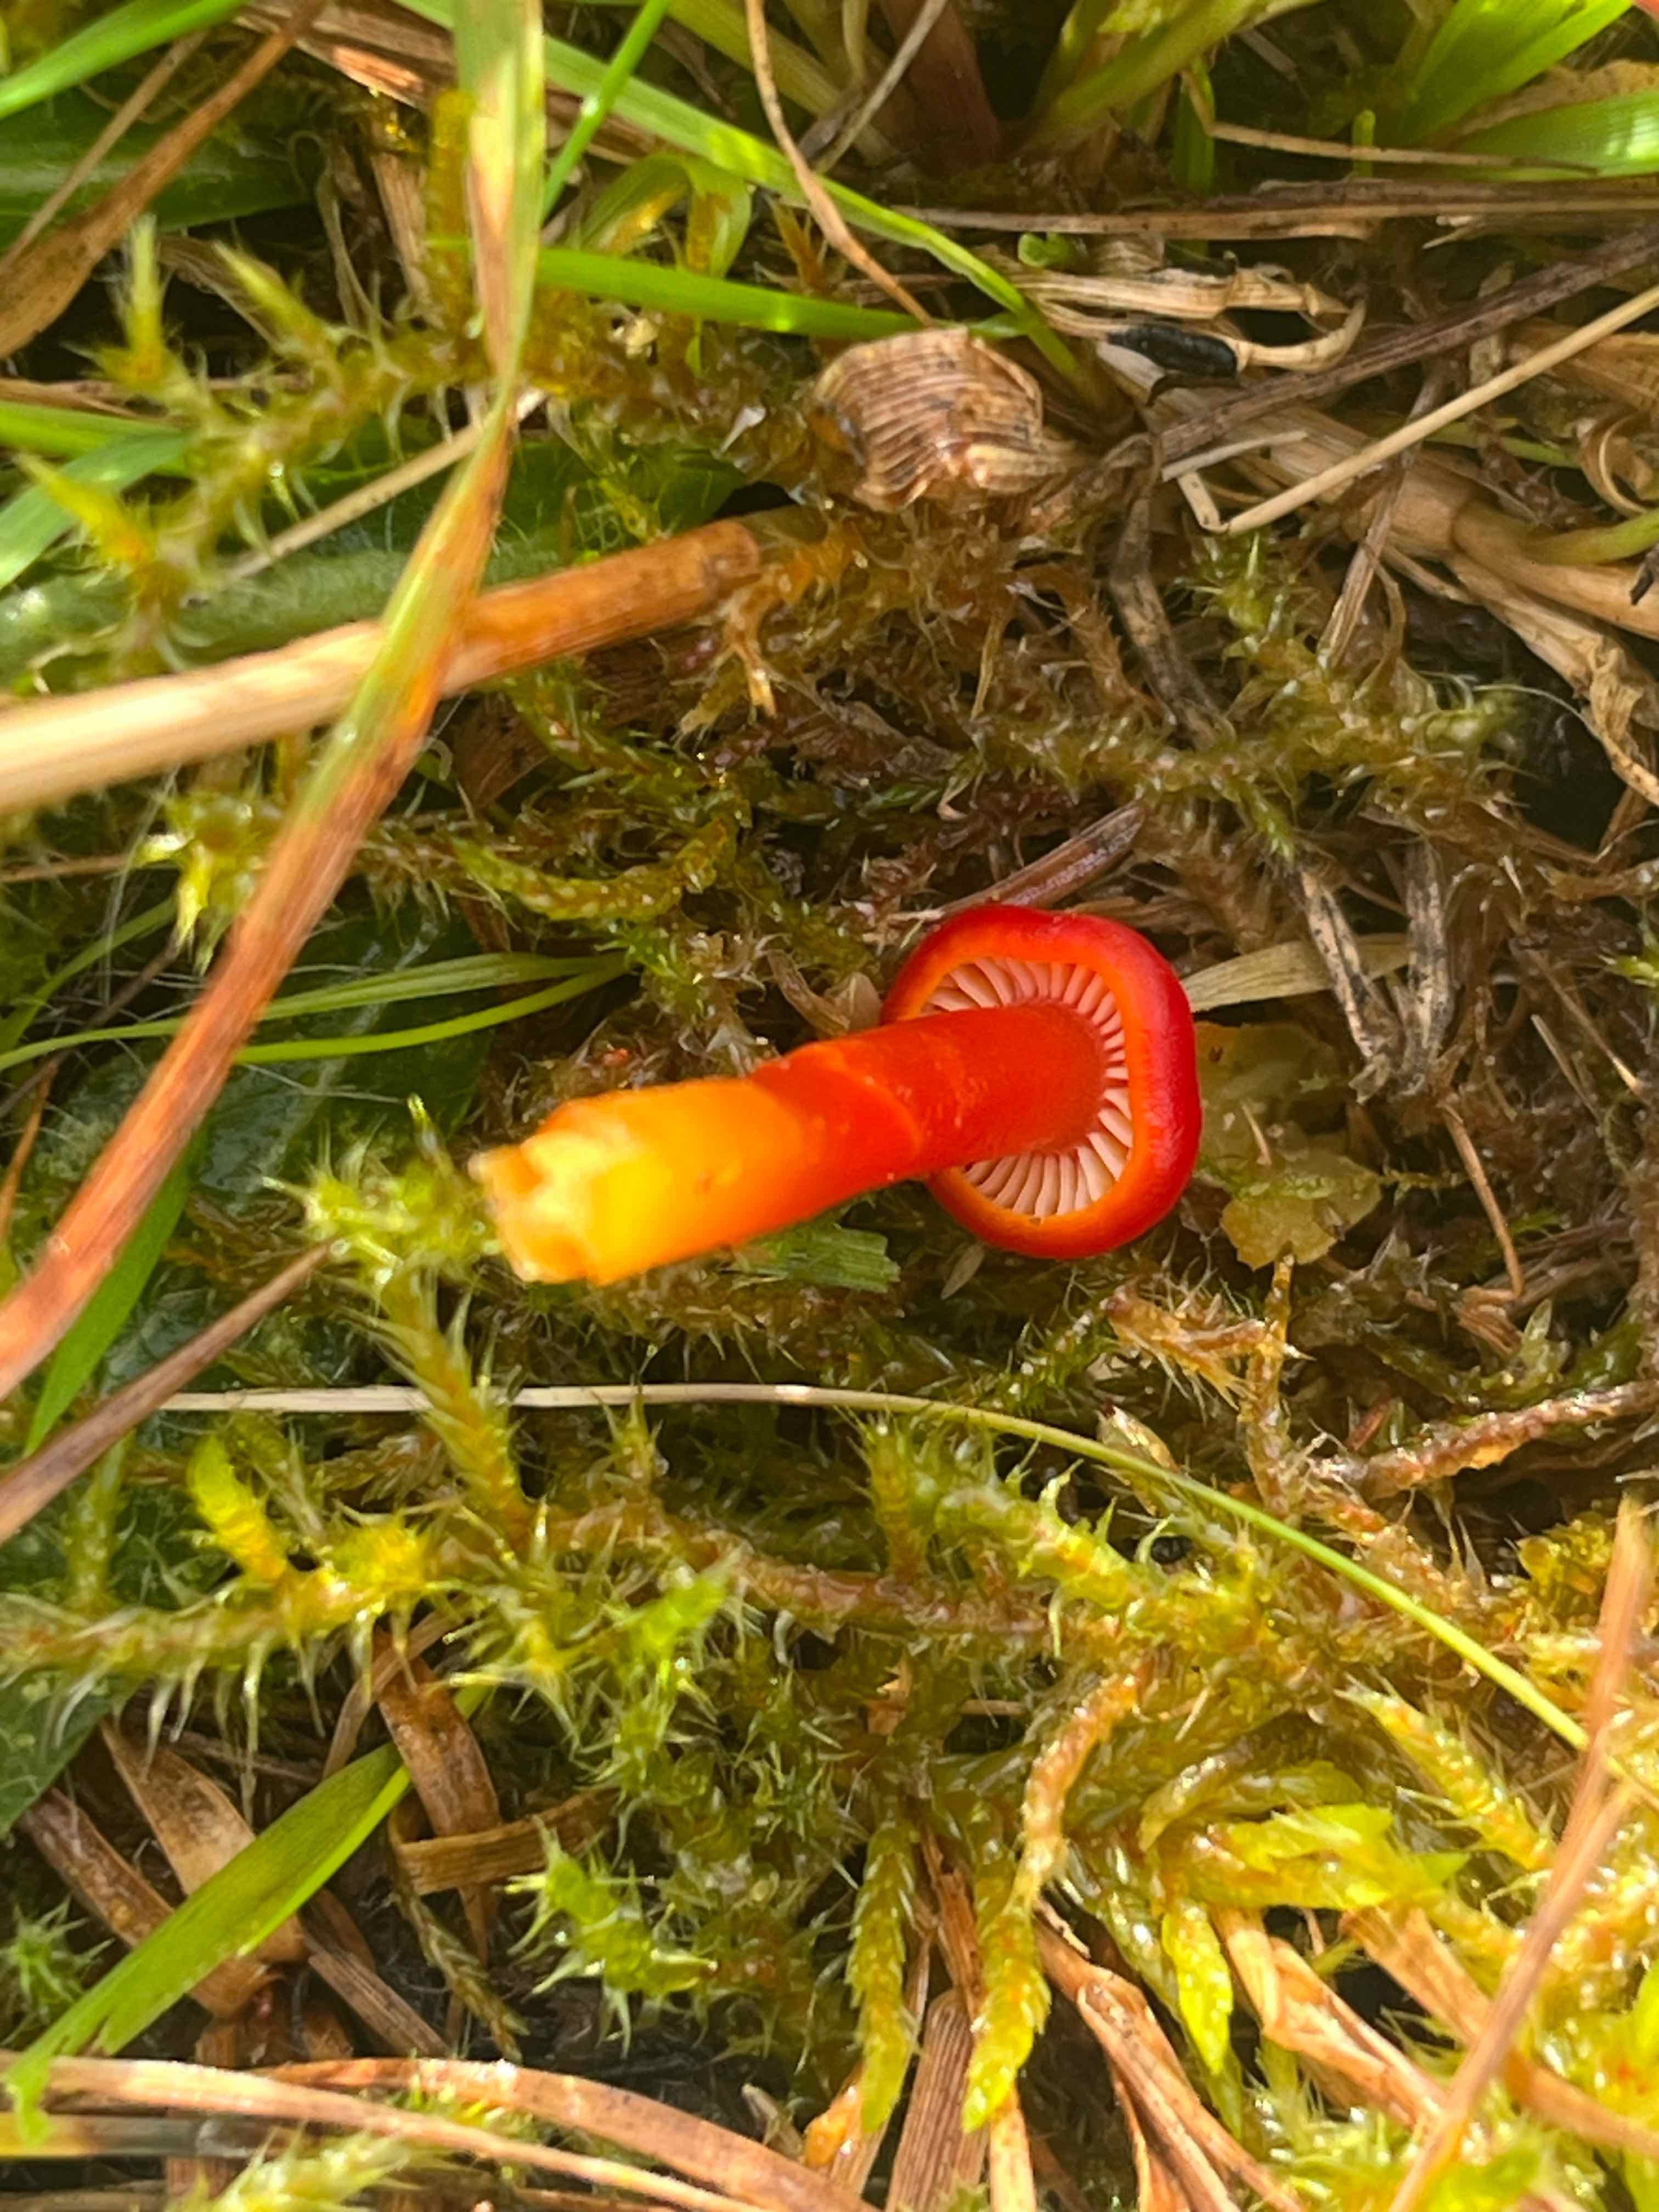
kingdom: Fungi
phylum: Basidiomycota
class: Agaricomycetes
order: Agaricales
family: Hygrophoraceae
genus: Hygrocybe
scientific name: Hygrocybe
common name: vokshat
